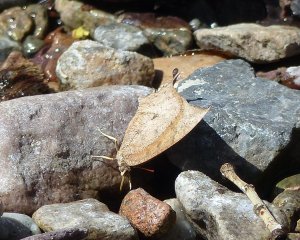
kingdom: Animalia
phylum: Arthropoda
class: Insecta
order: Lepidoptera
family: Nymphalidae
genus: Anaea
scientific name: Anaea andria
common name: Goatweed Leafwing
